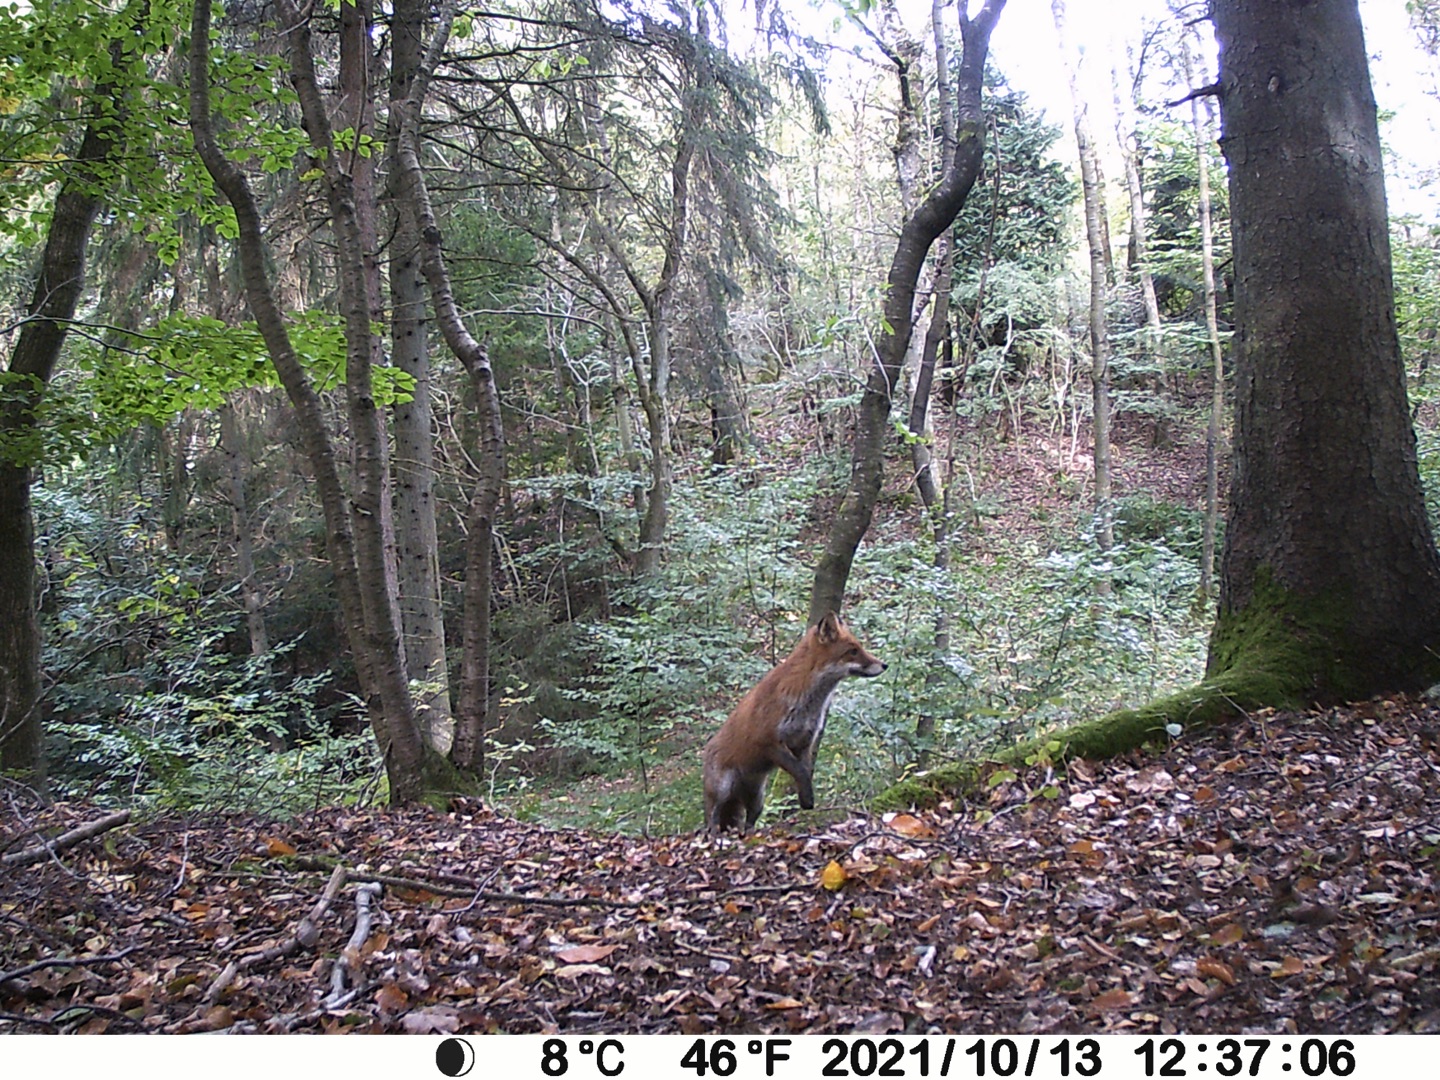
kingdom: Animalia
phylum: Chordata
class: Mammalia
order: Carnivora
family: Canidae
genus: Vulpes
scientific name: Vulpes vulpes
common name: Ræv
